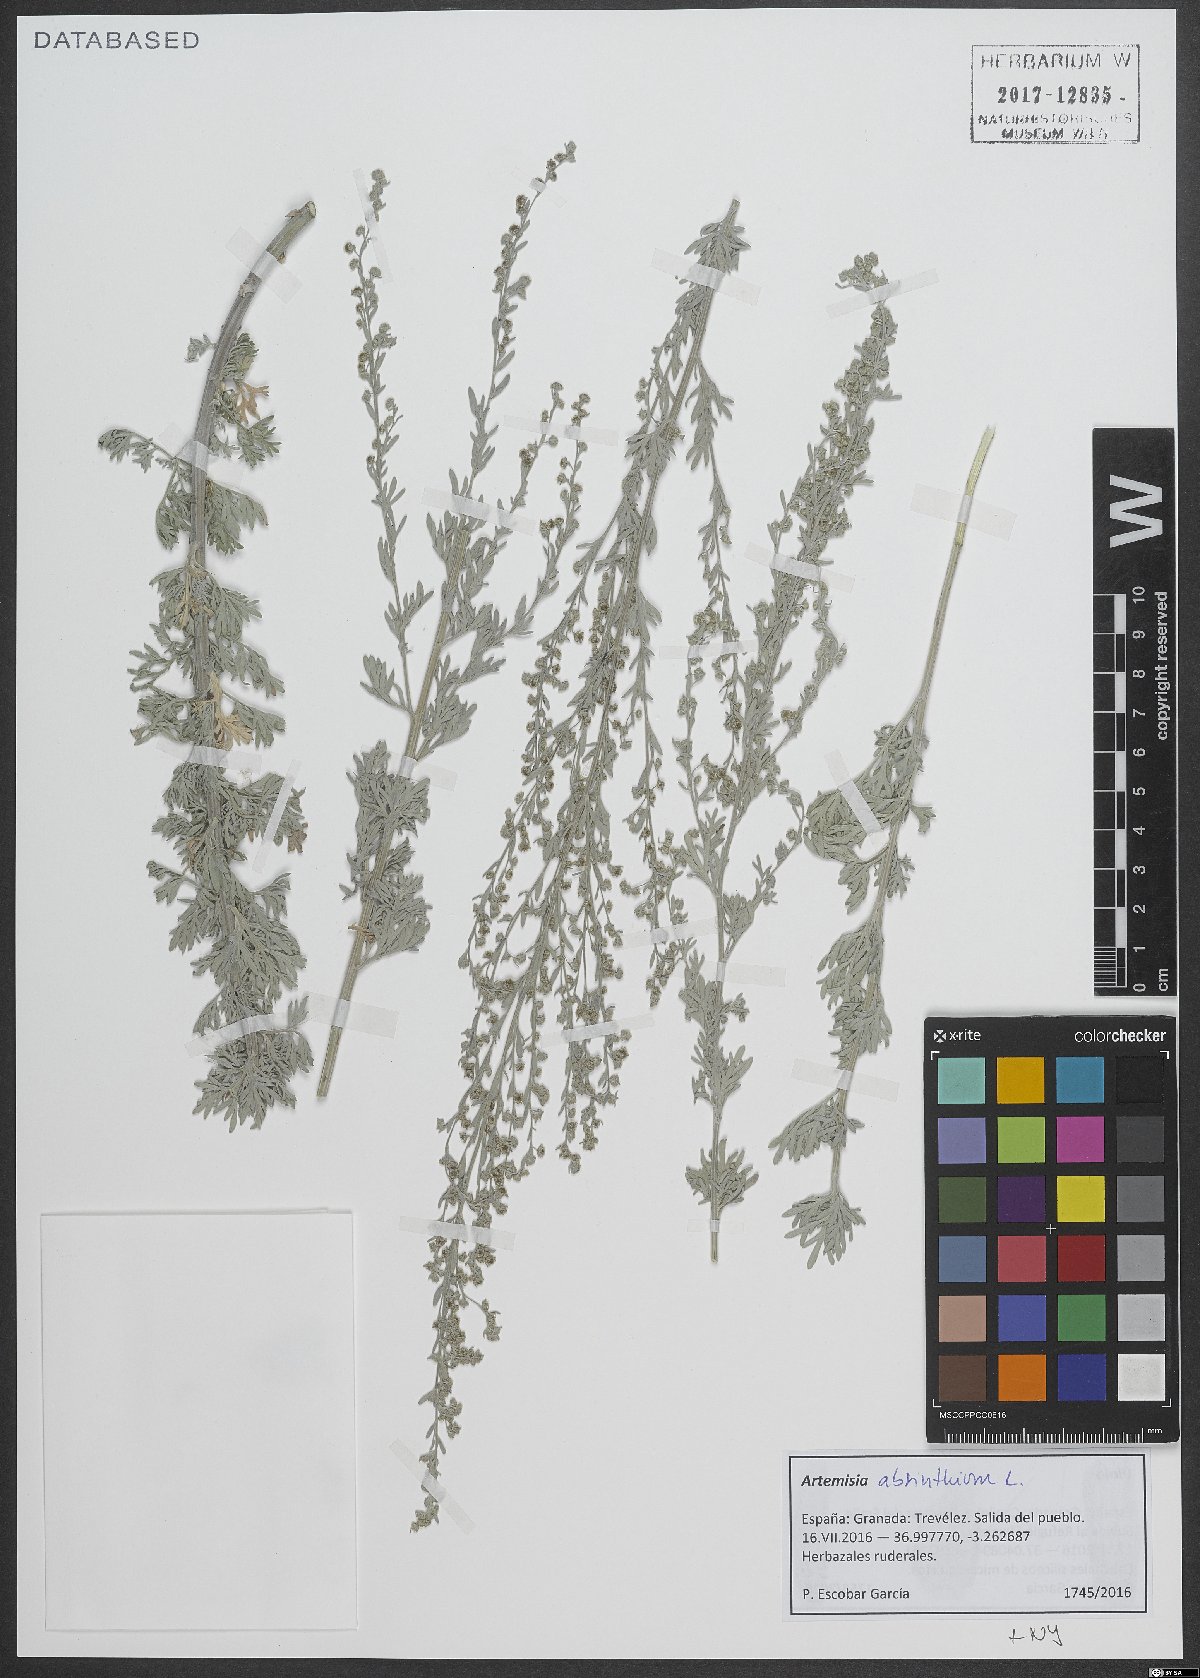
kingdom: Plantae
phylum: Tracheophyta
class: Magnoliopsida
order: Asterales
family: Asteraceae
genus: Artemisia
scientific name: Artemisia absinthium
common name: Wormwood
